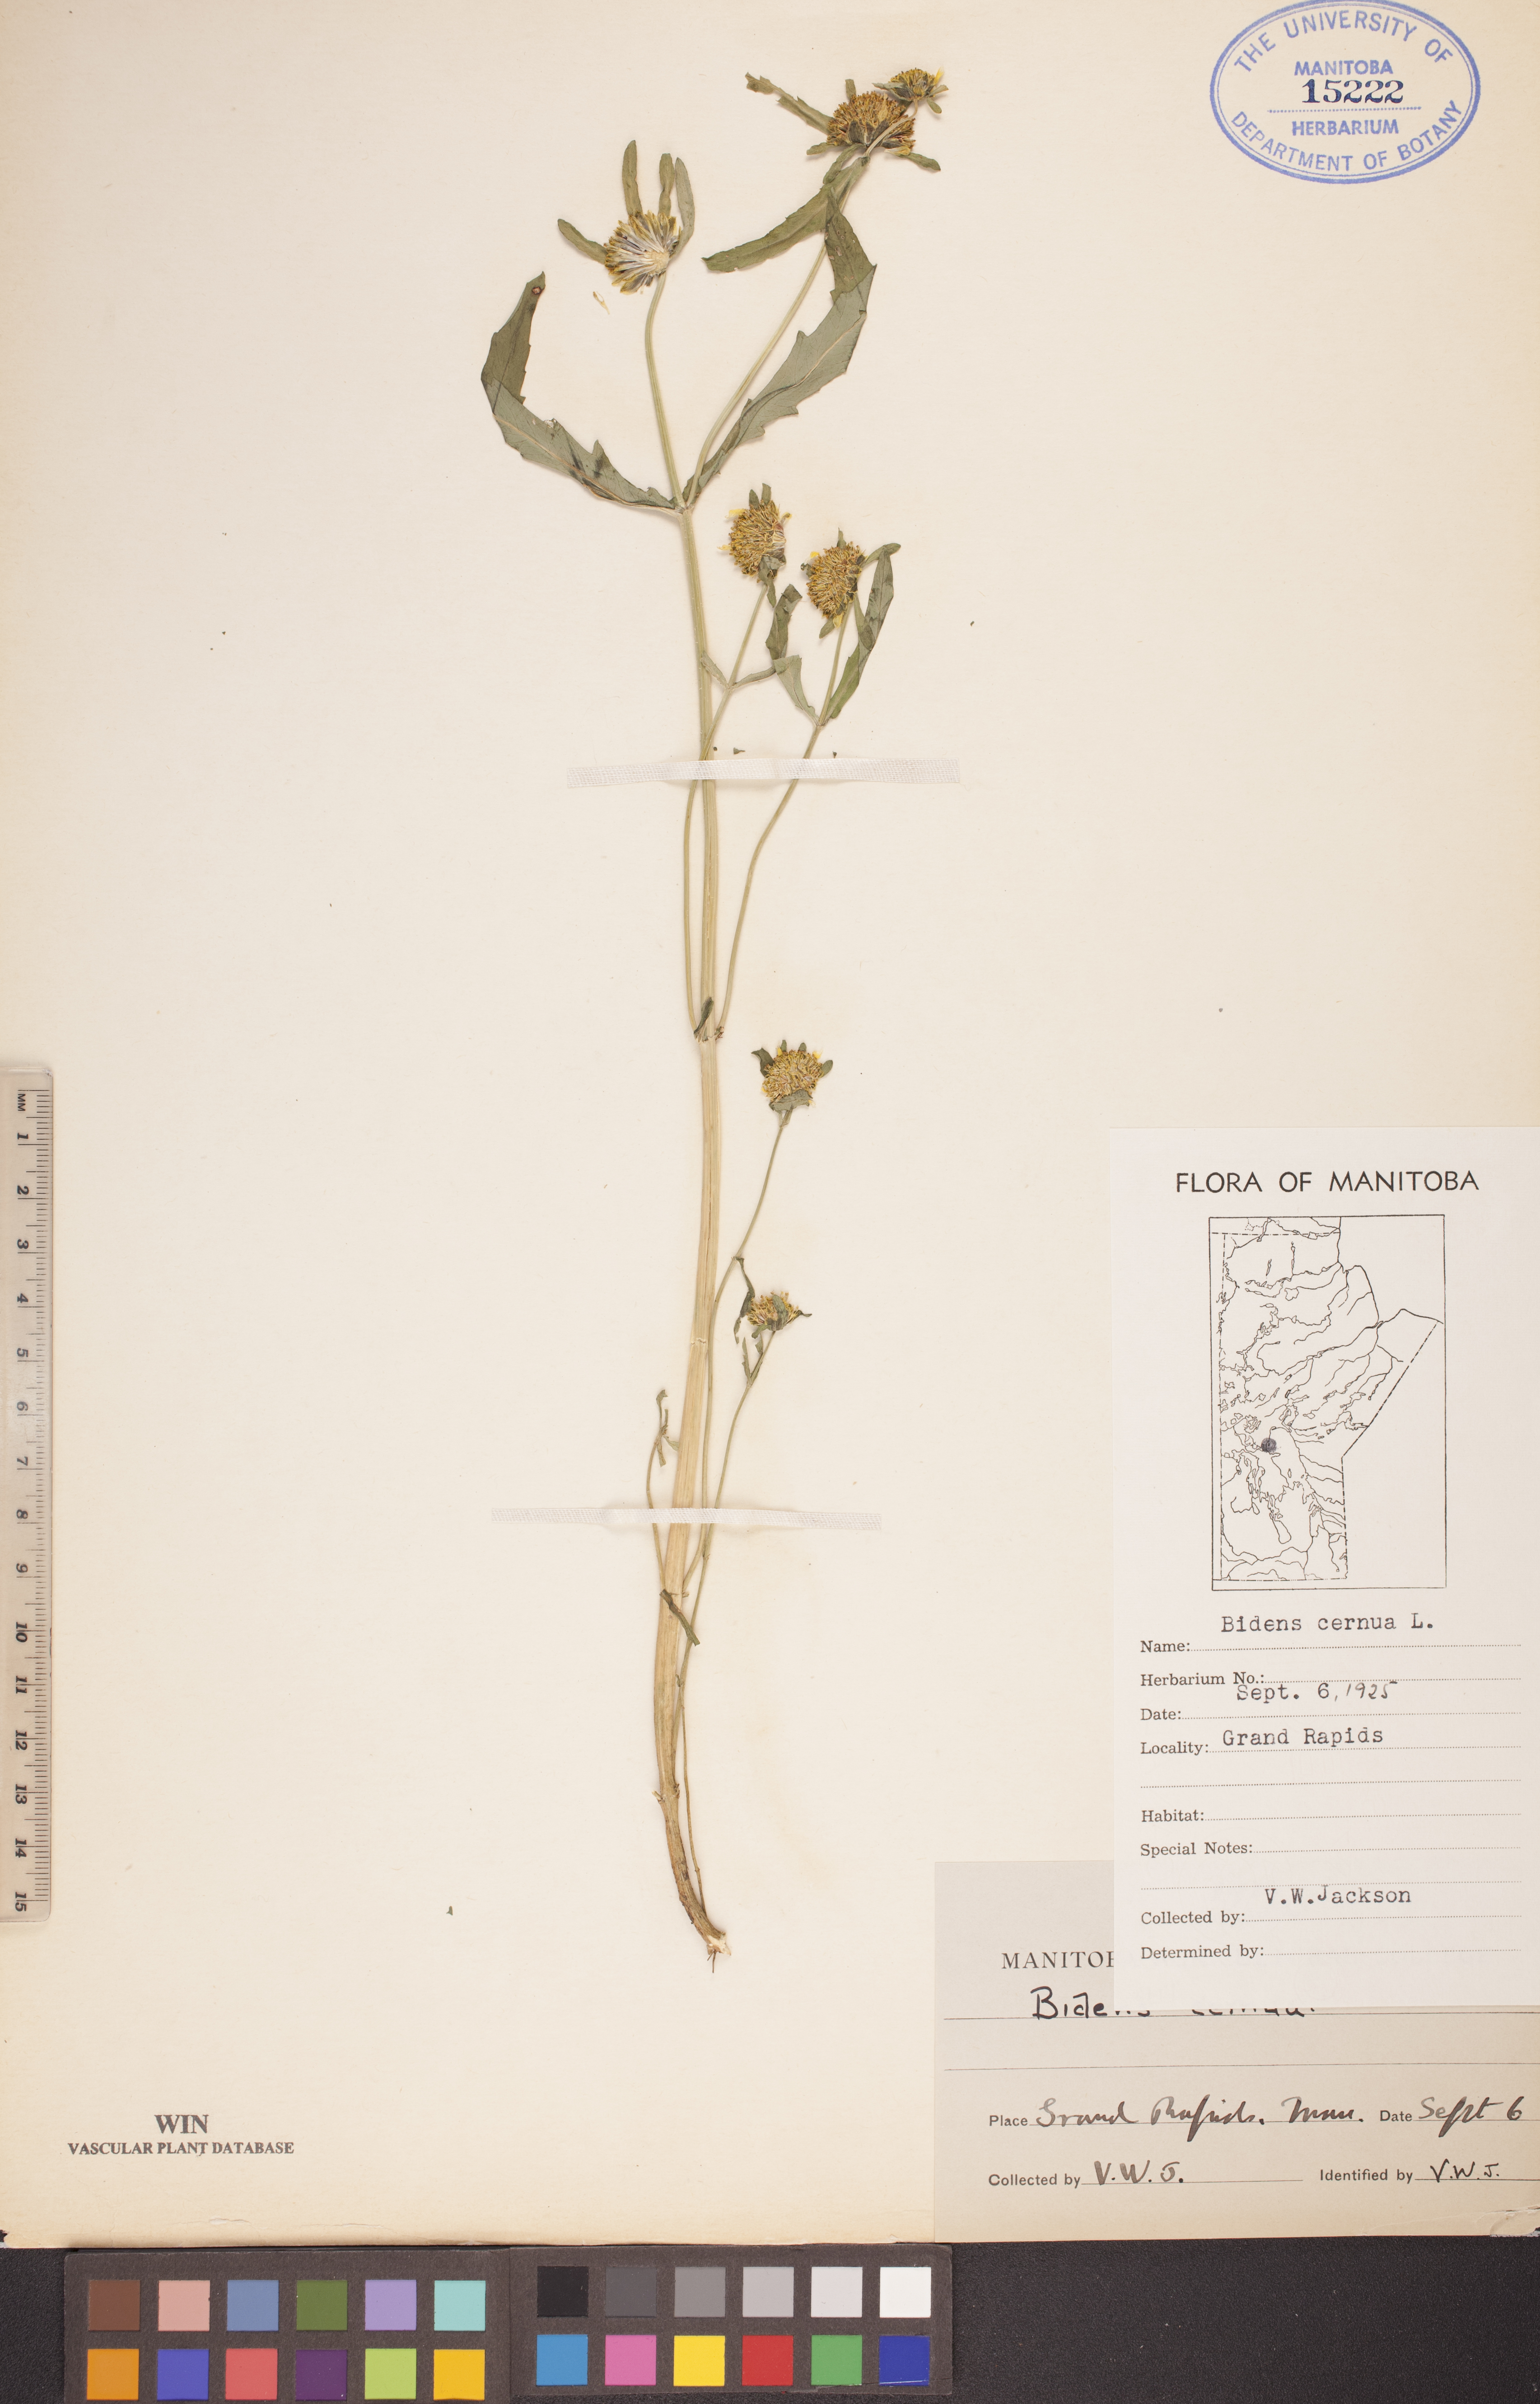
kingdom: Plantae
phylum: Tracheophyta
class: Magnoliopsida
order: Asterales
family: Asteraceae
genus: Bidens
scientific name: Bidens cernua
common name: Nodding bur-marigold
